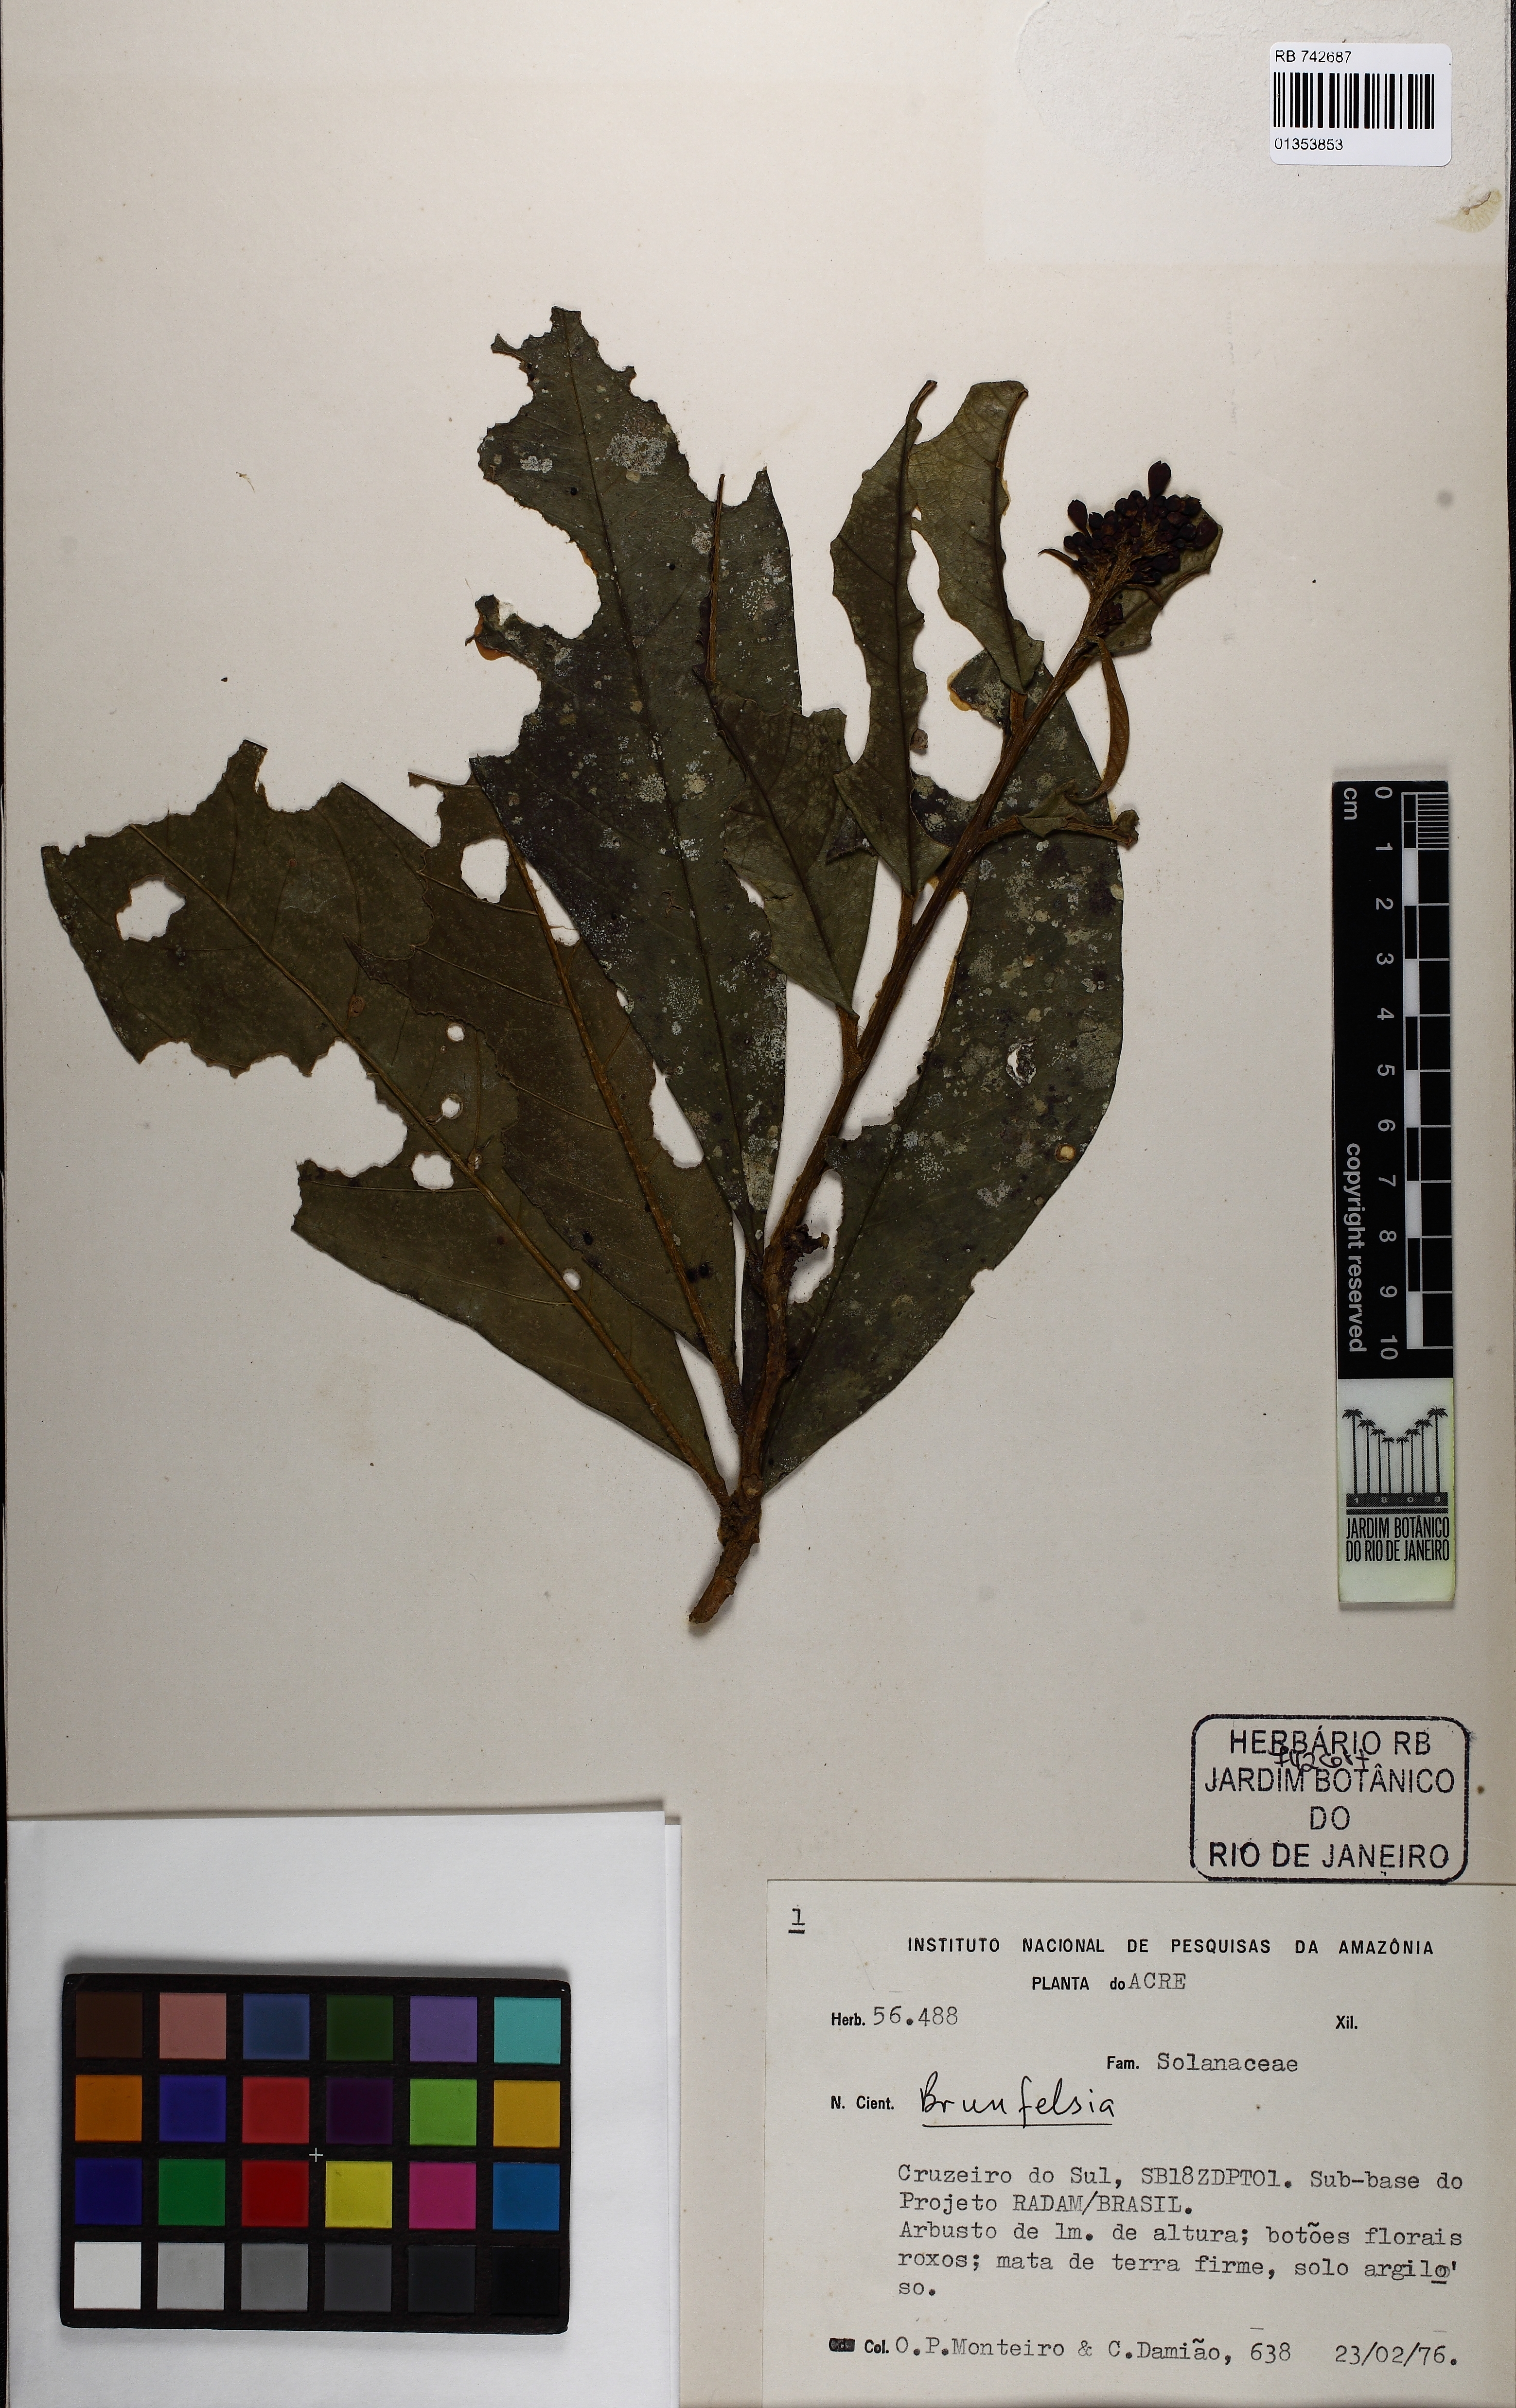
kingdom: Plantae
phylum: Tracheophyta
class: Magnoliopsida
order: Solanales
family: Solanaceae
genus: Brunfelsia
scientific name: Brunfelsia
